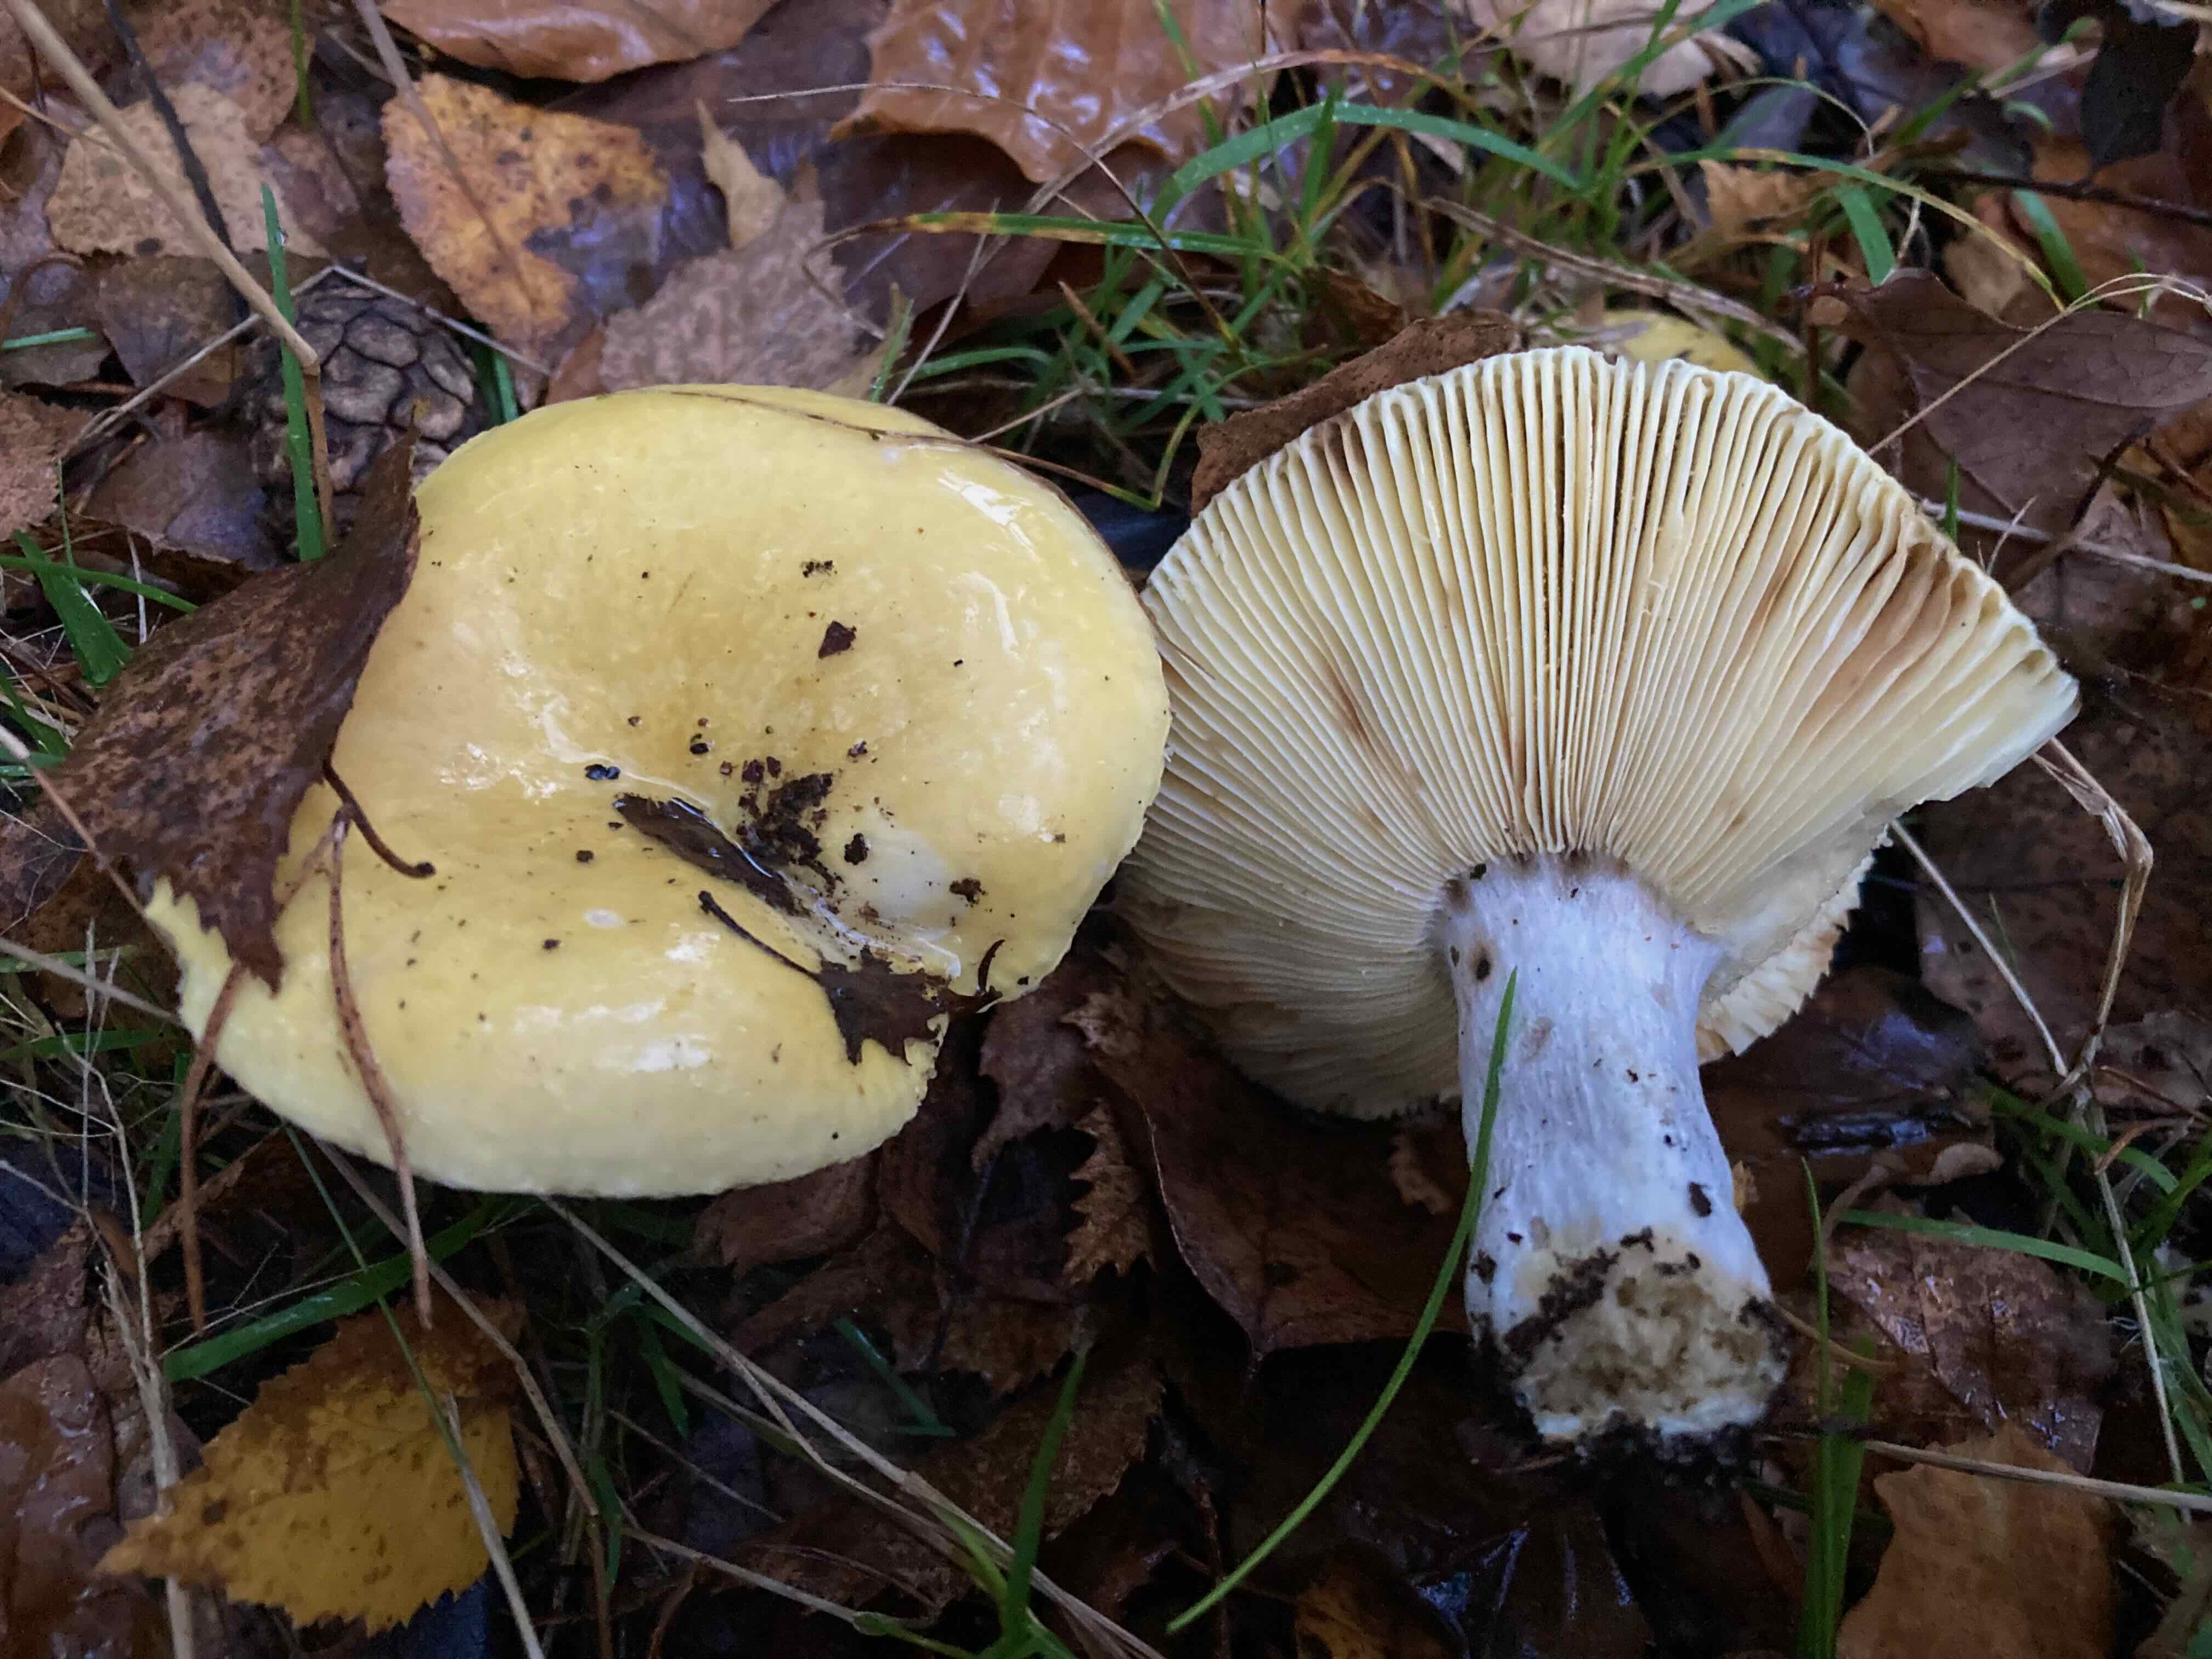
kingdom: Fungi
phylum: Basidiomycota
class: Agaricomycetes
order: Russulales
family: Russulaceae
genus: Russula
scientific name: Russula claroflava
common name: birke-skørhat
